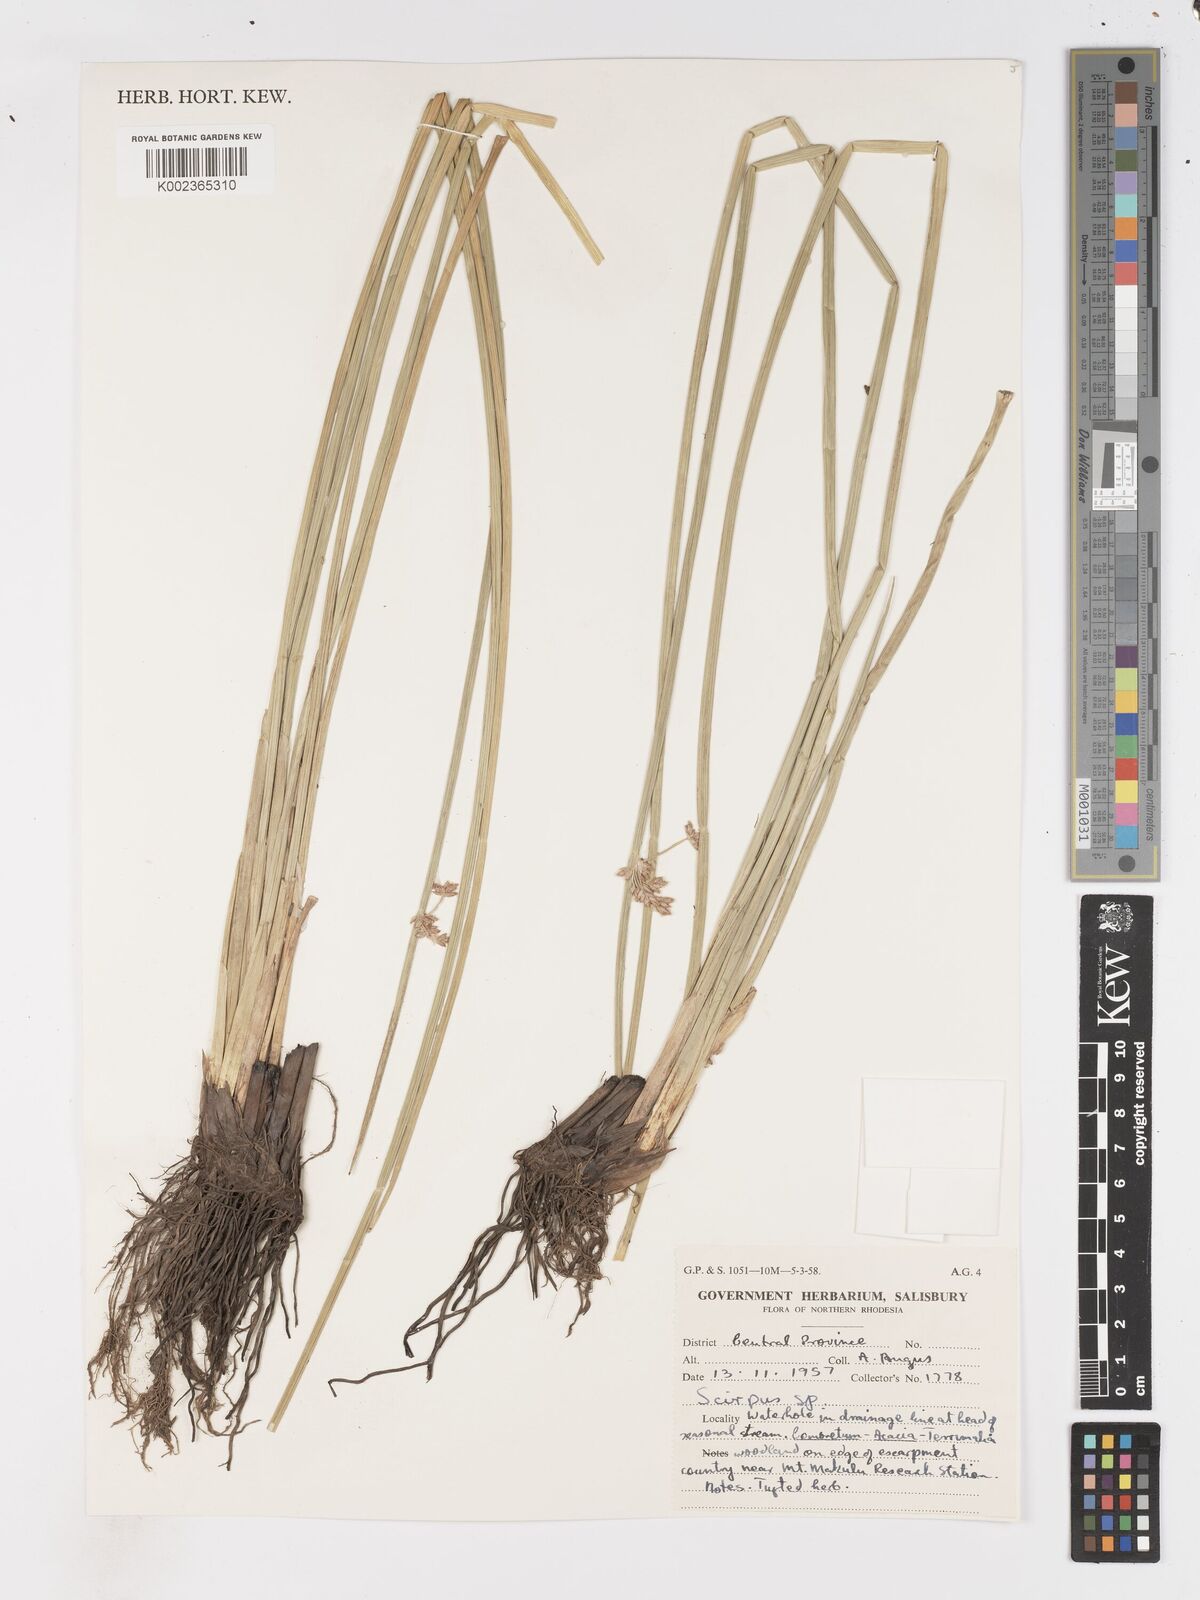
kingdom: Plantae
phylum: Tracheophyta
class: Liliopsida
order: Poales
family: Cyperaceae
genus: Schoenoplectus
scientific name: Schoenoplectus
